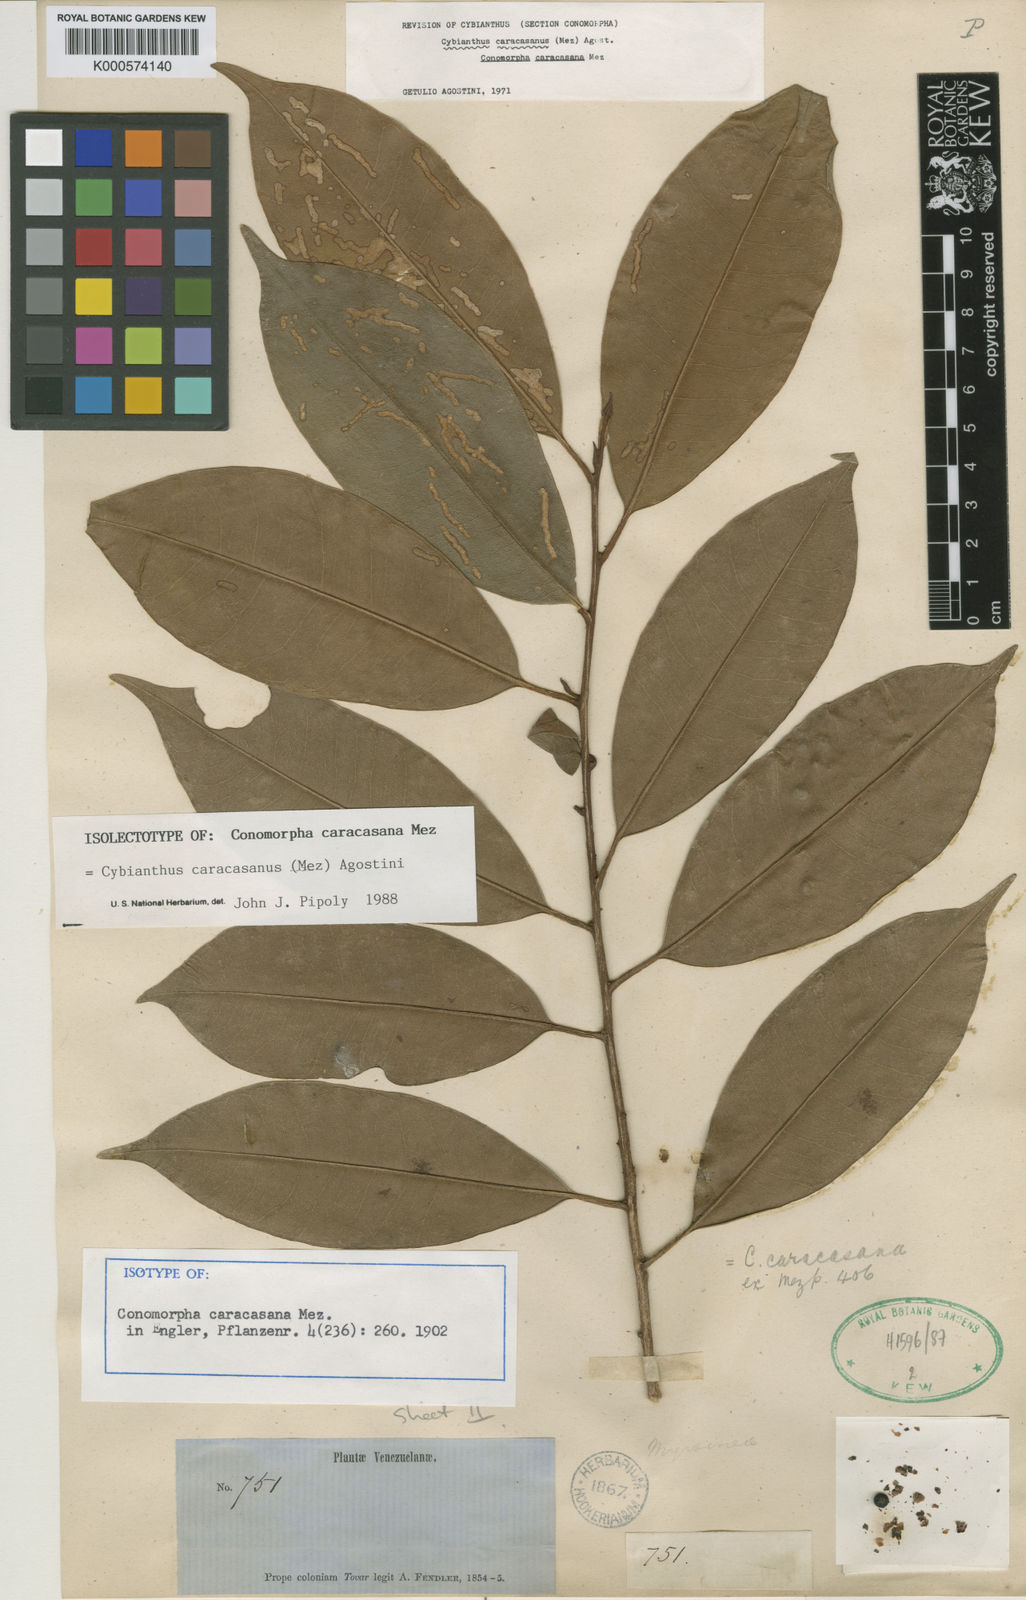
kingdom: Plantae
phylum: Tracheophyta
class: Magnoliopsida
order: Ericales
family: Primulaceae
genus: Cybianthus
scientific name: Cybianthus caracasanus
